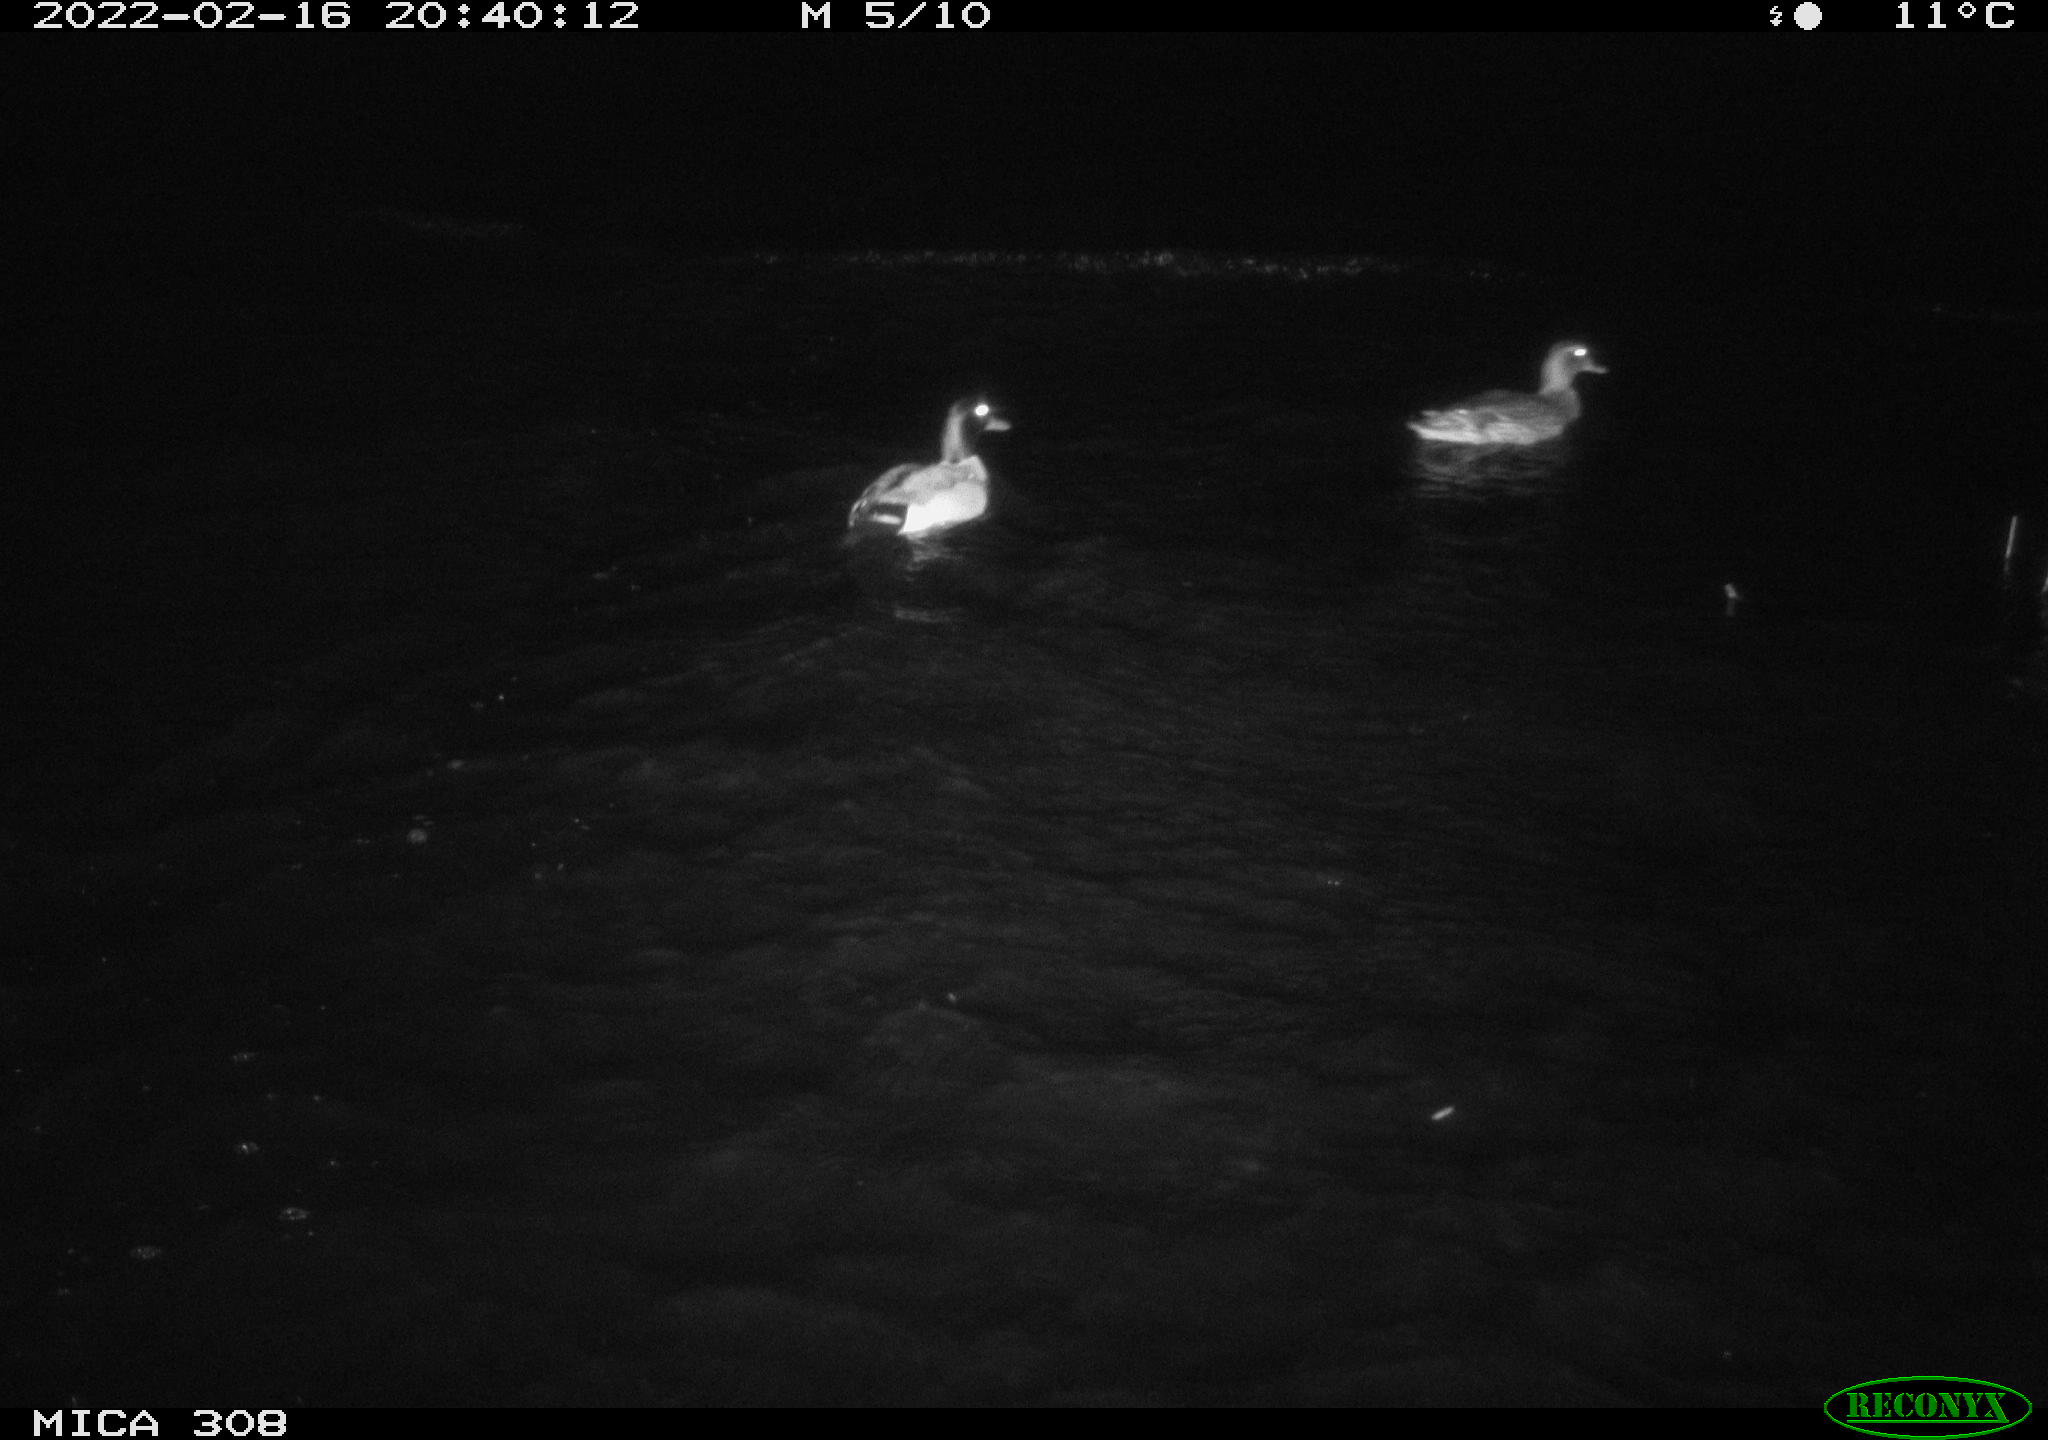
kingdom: Animalia
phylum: Chordata
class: Aves
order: Anseriformes
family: Anatidae
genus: Anas
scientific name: Anas platyrhynchos
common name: Mallard
